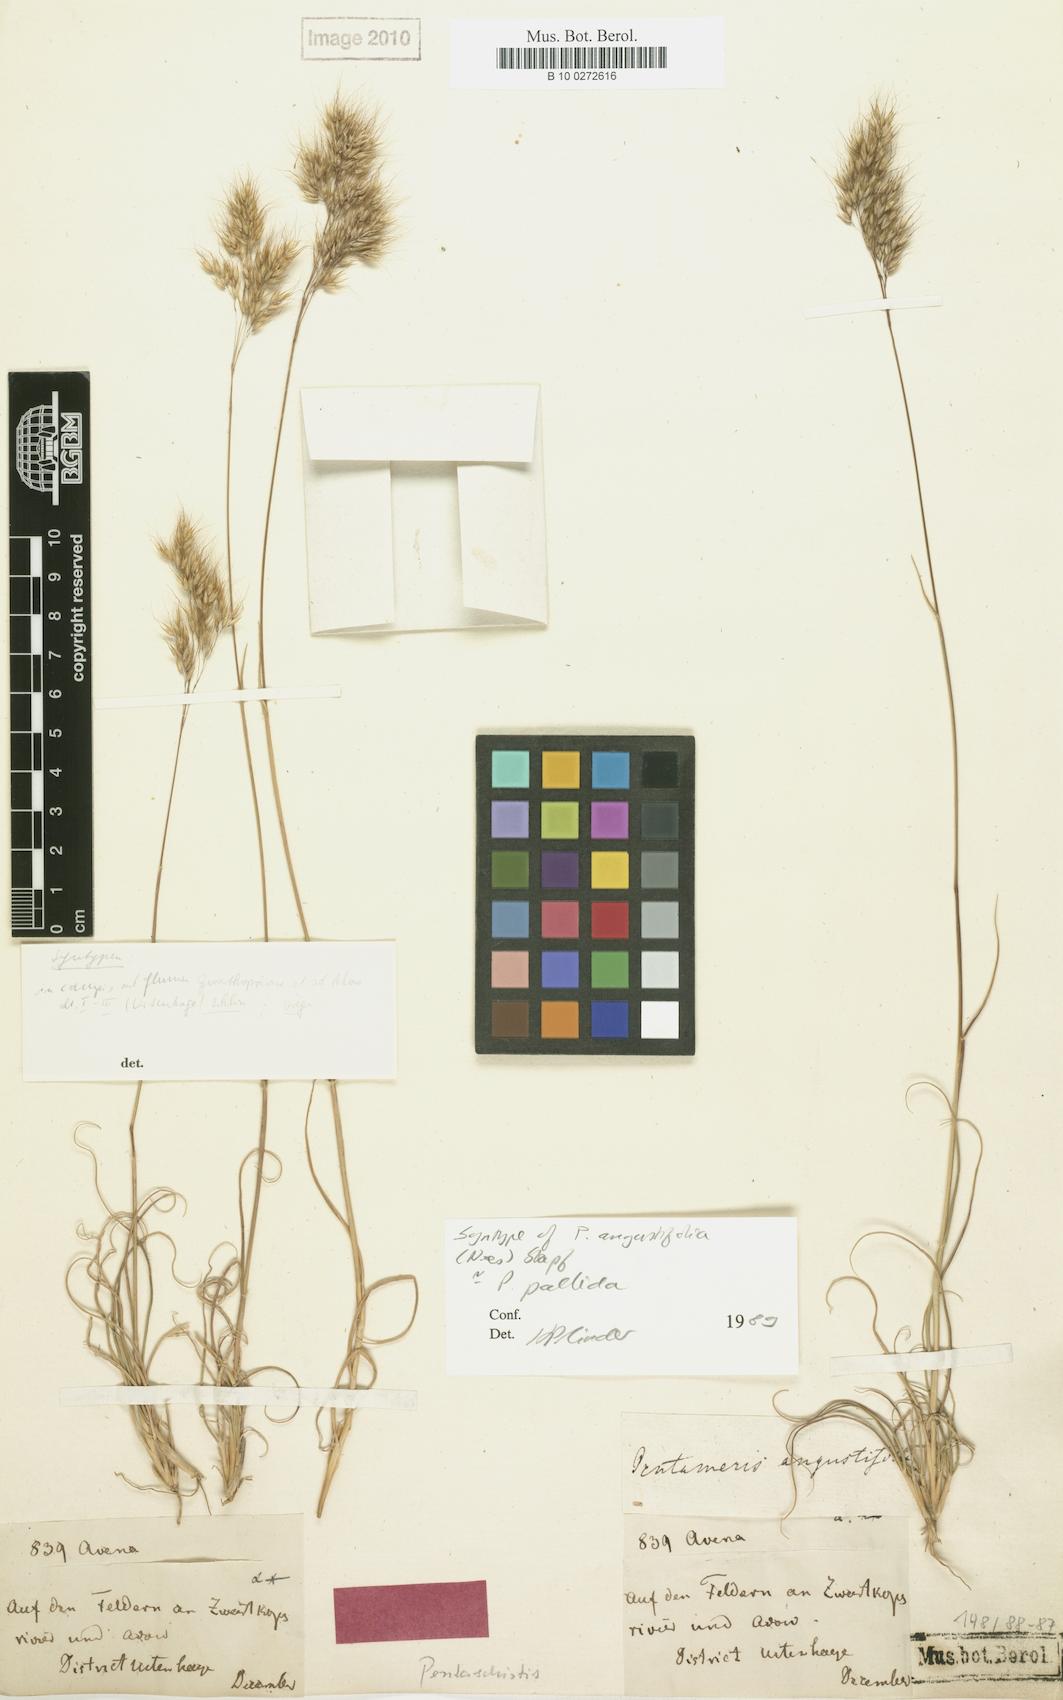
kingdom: Plantae
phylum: Tracheophyta
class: Liliopsida
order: Poales
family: Poaceae
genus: Pentameris
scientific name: Pentameris pallida
